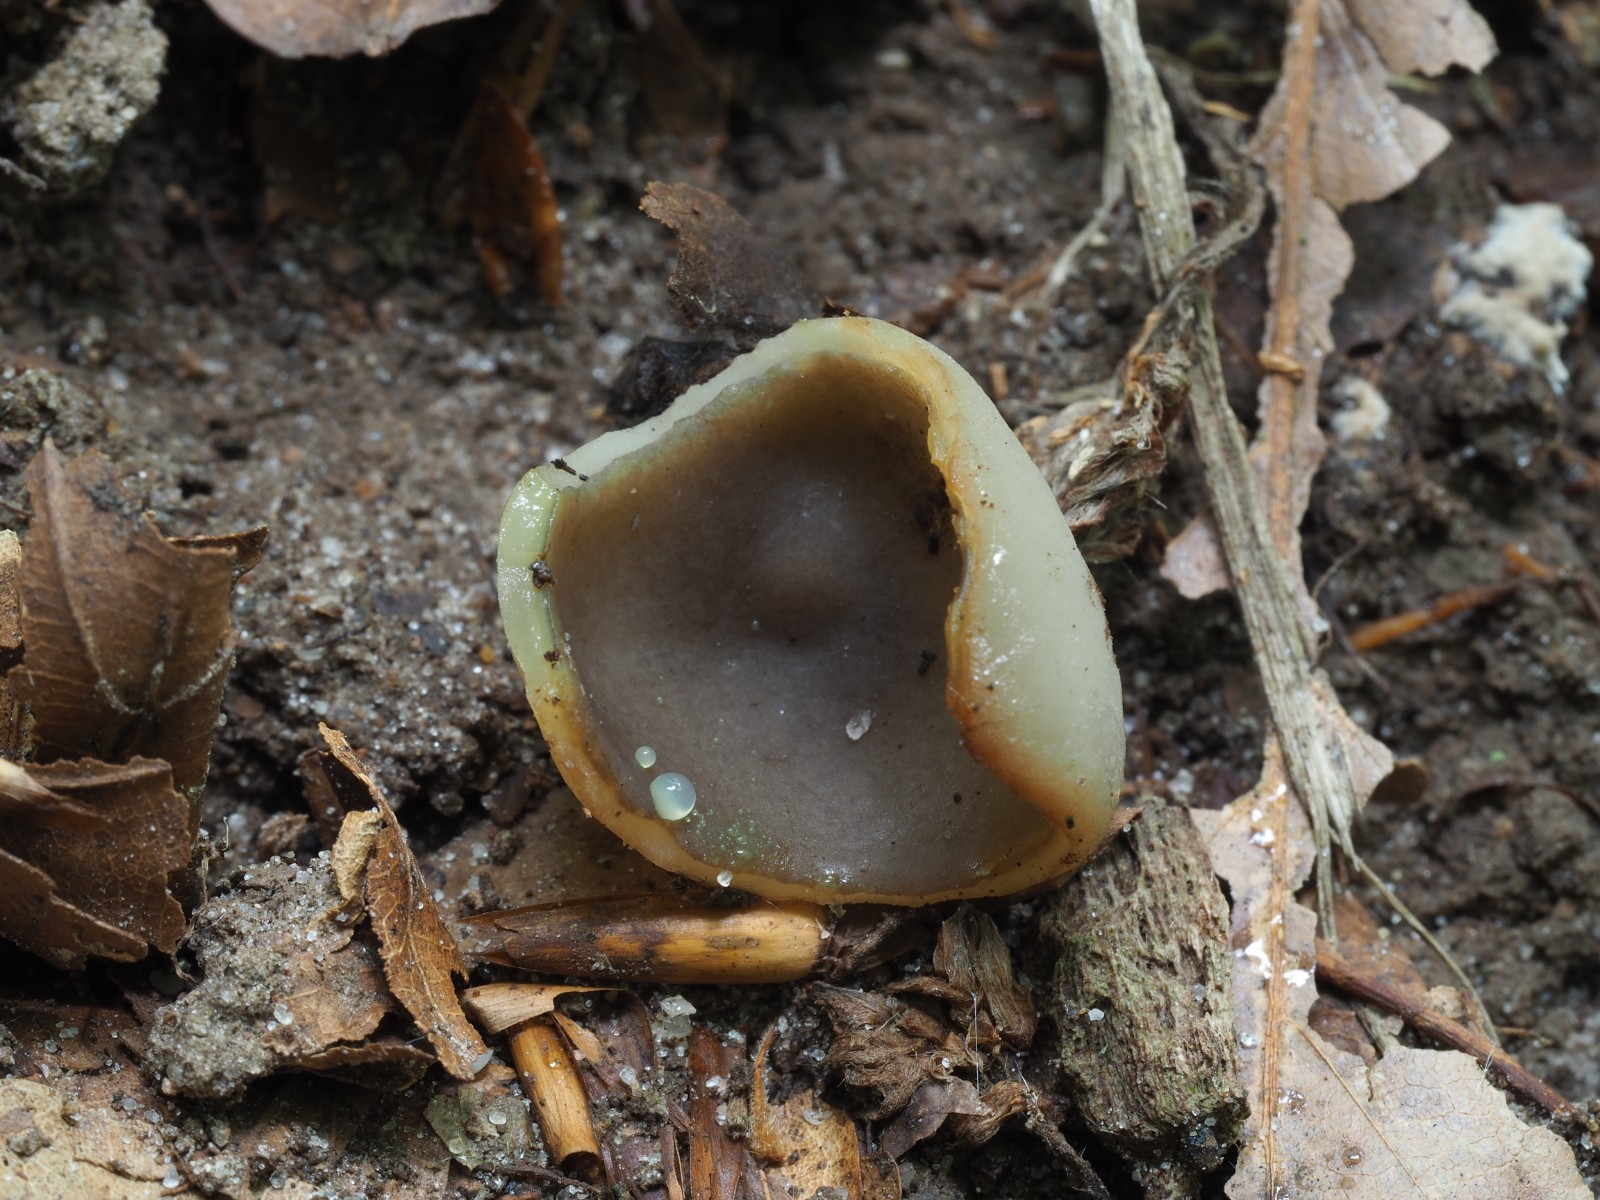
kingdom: Fungi
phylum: Ascomycota
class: Pezizomycetes
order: Pezizales
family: Pezizaceae
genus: Peziza
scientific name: Peziza
